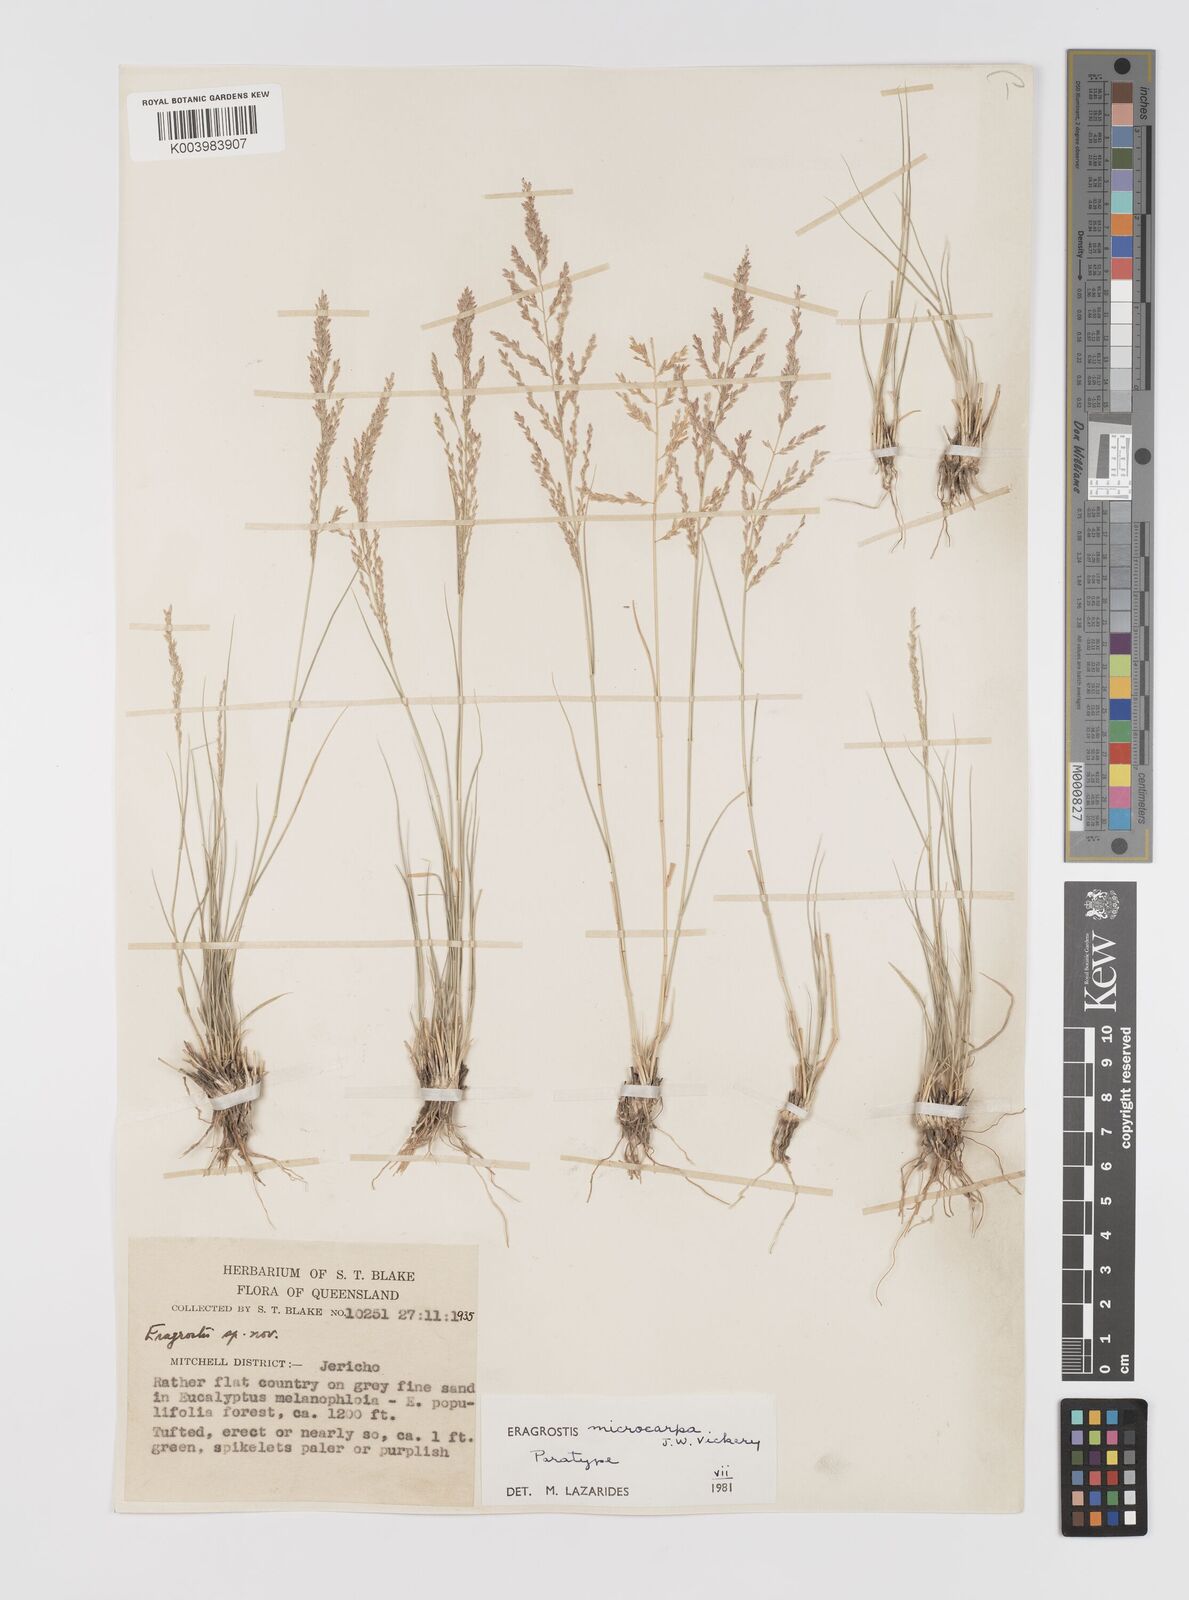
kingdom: Plantae
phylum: Tracheophyta
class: Liliopsida
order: Poales
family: Poaceae
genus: Eragrostis
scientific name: Eragrostis microcarpa
